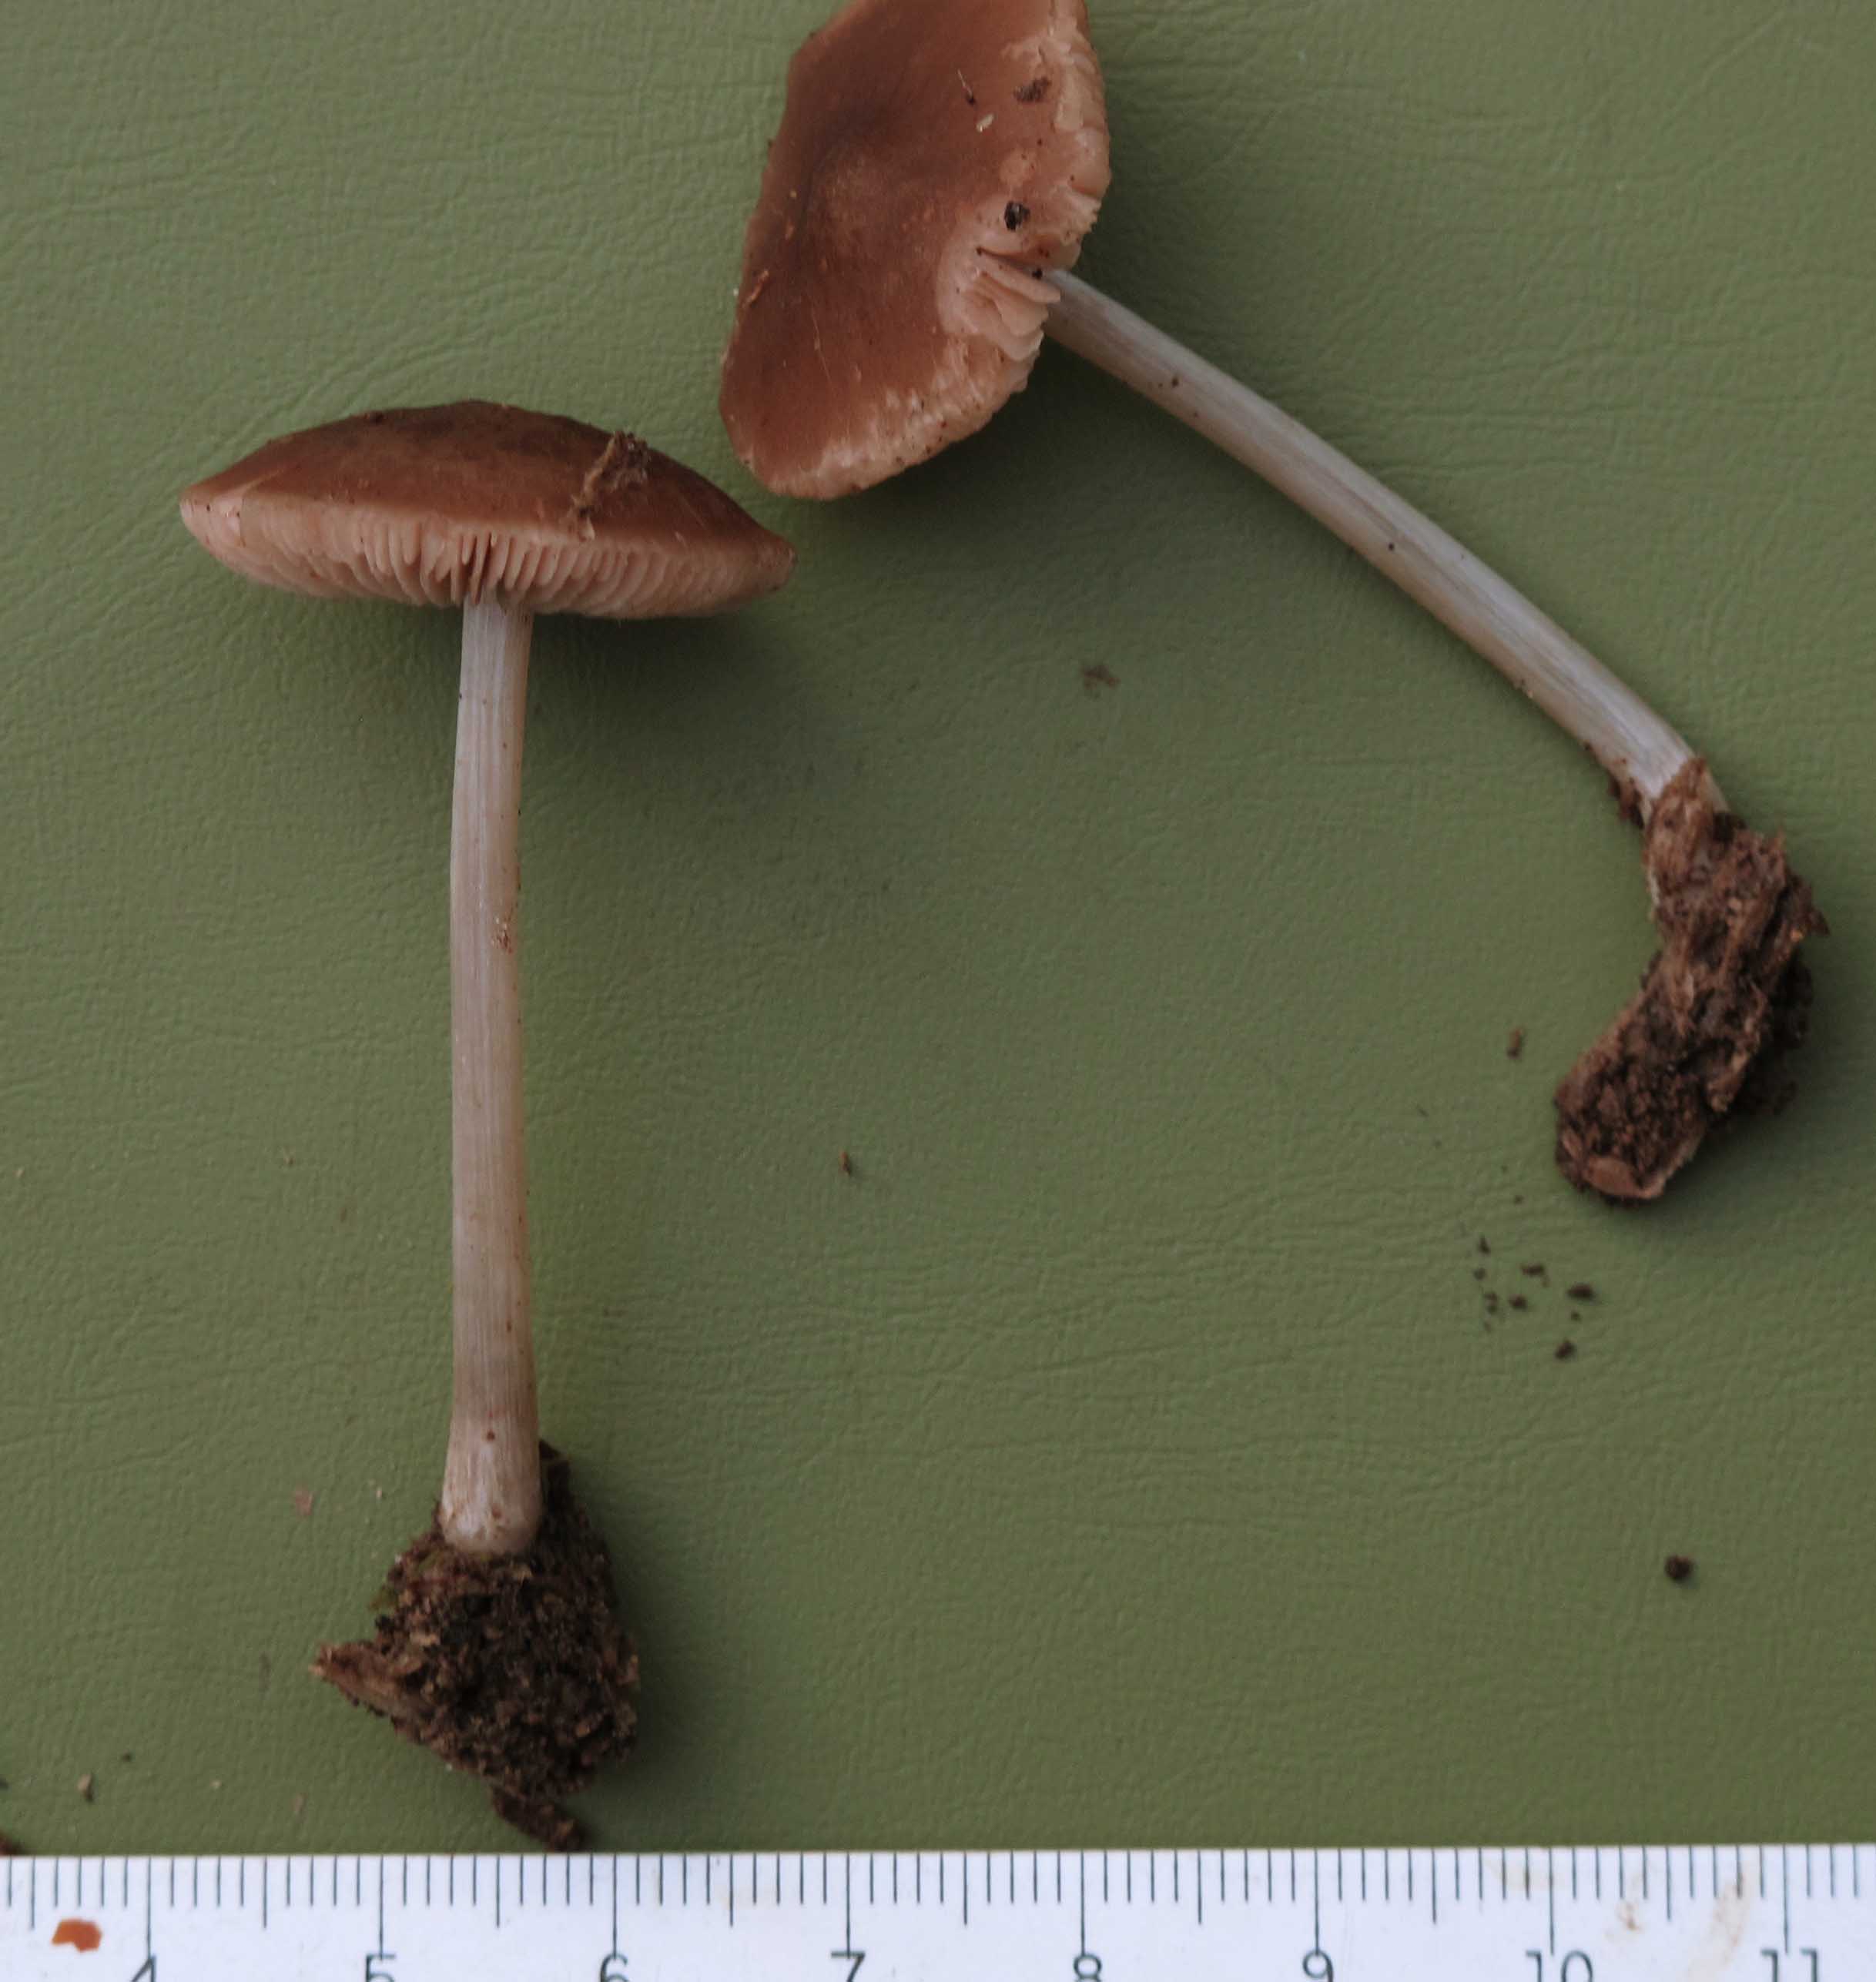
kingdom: Fungi
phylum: Basidiomycota
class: Agaricomycetes
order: Agaricales
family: Pluteaceae
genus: Pluteus
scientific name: Pluteus phlebophorus
